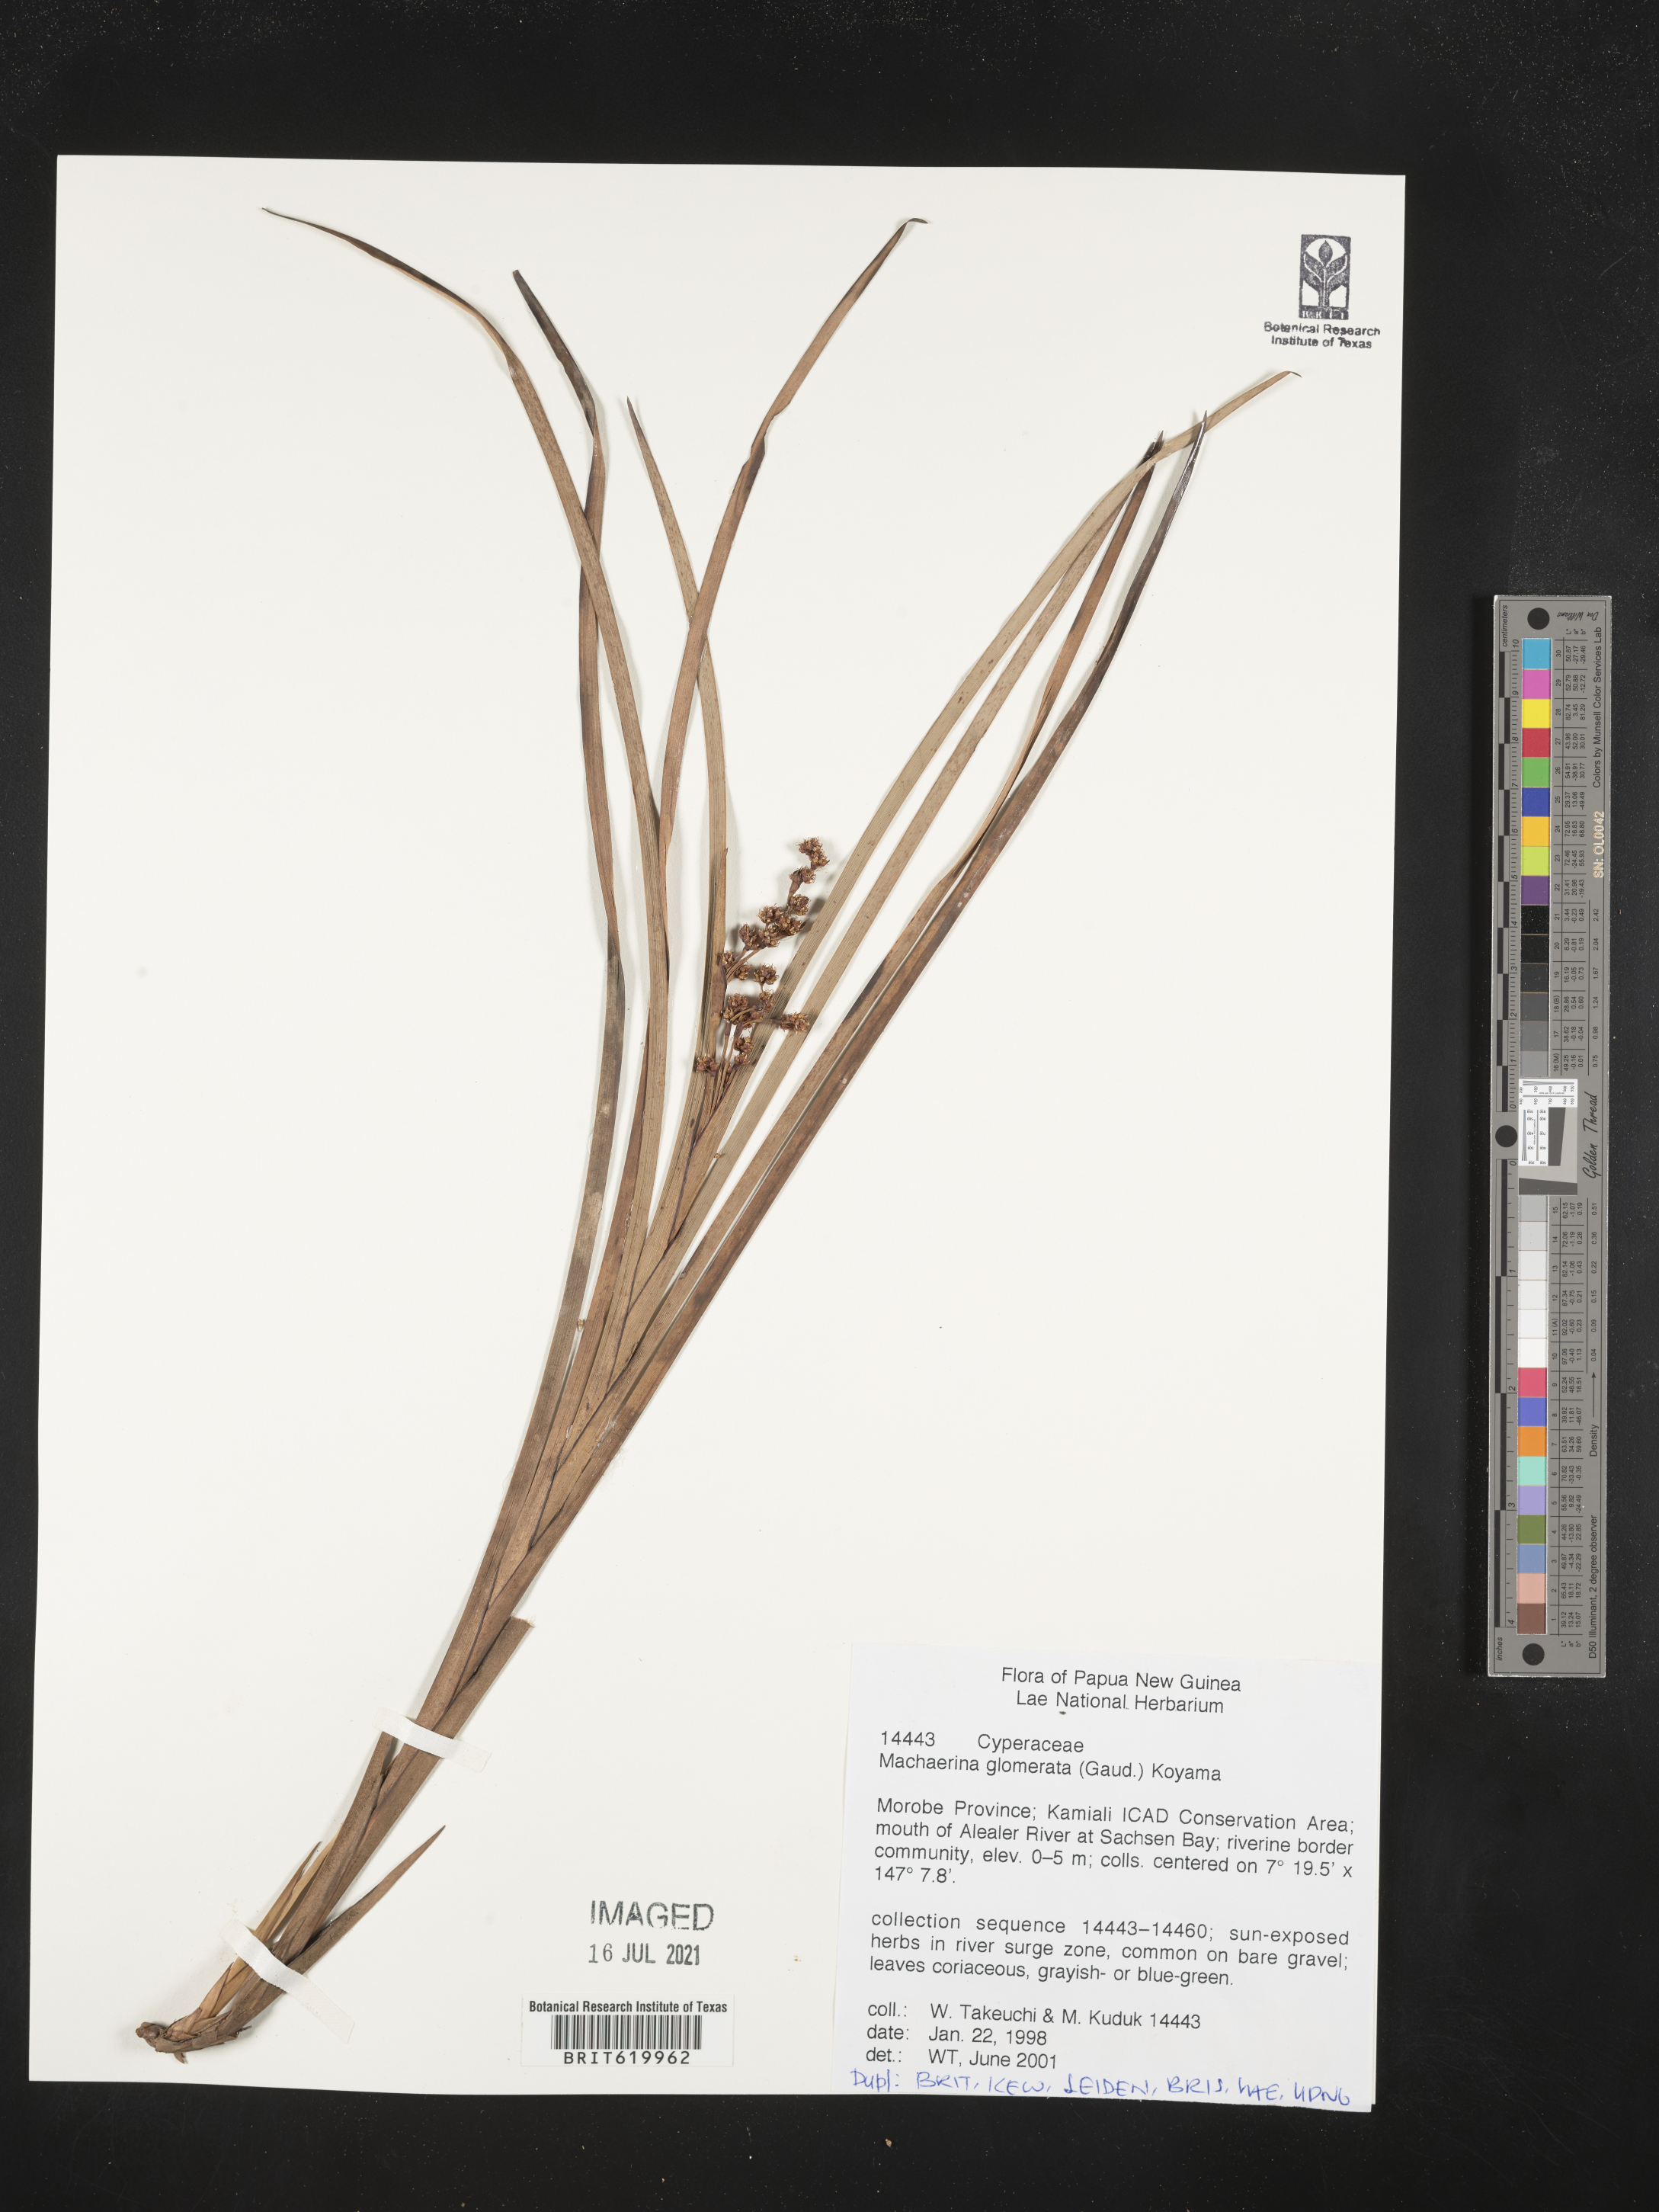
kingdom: Plantae
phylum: Tracheophyta
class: Liliopsida
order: Poales
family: Cyperaceae
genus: Machaerina
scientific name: Machaerina glomerata
